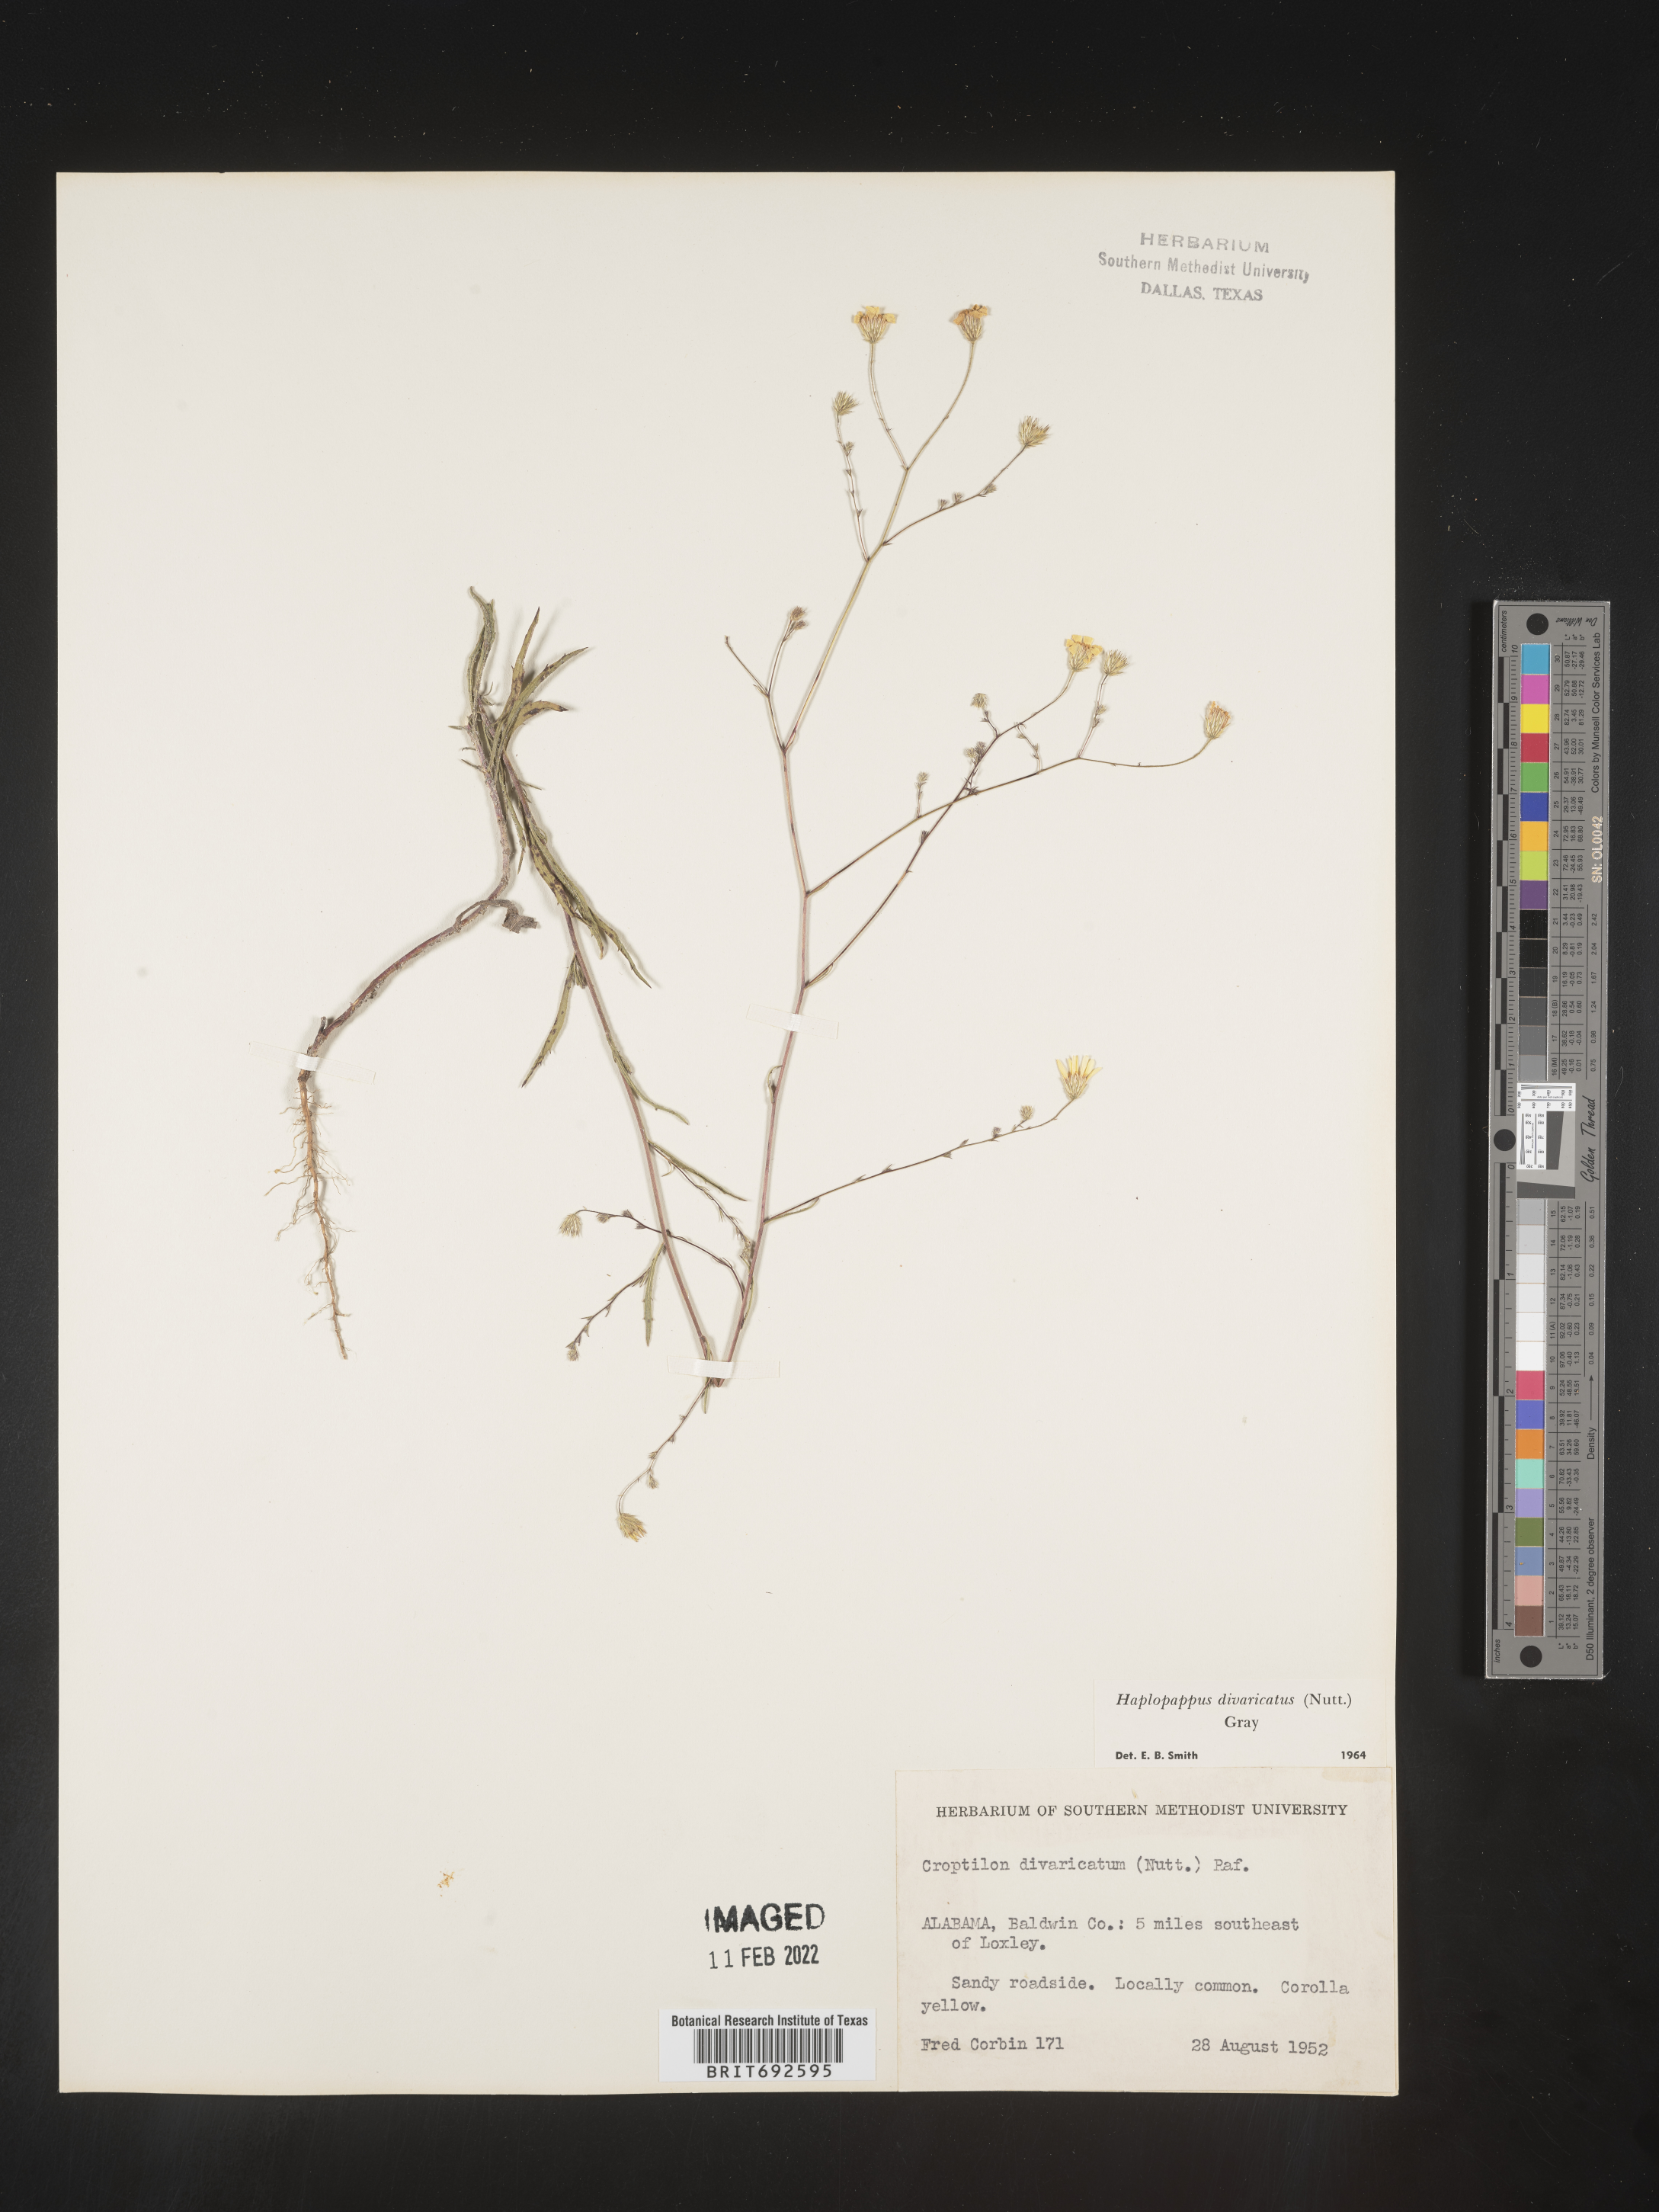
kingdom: Plantae
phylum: Tracheophyta
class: Magnoliopsida
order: Asterales
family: Asteraceae
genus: Croptilon
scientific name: Croptilon divaricatum
